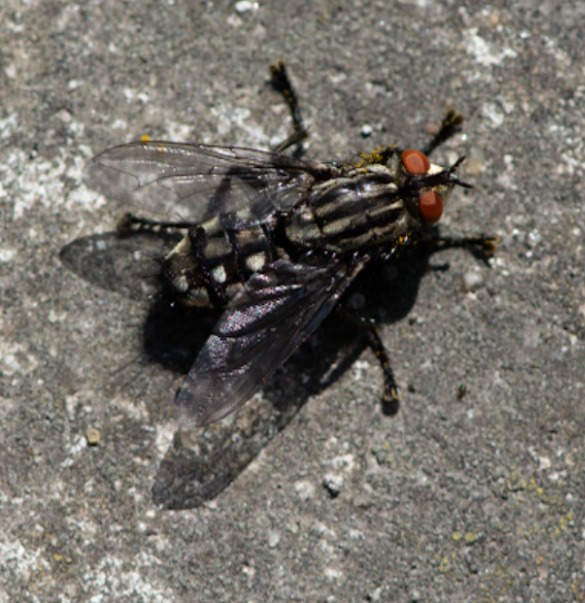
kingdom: Animalia
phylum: Arthropoda
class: Insecta
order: Diptera
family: Sarcophagidae
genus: Sarcophaga
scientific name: Sarcophaga
